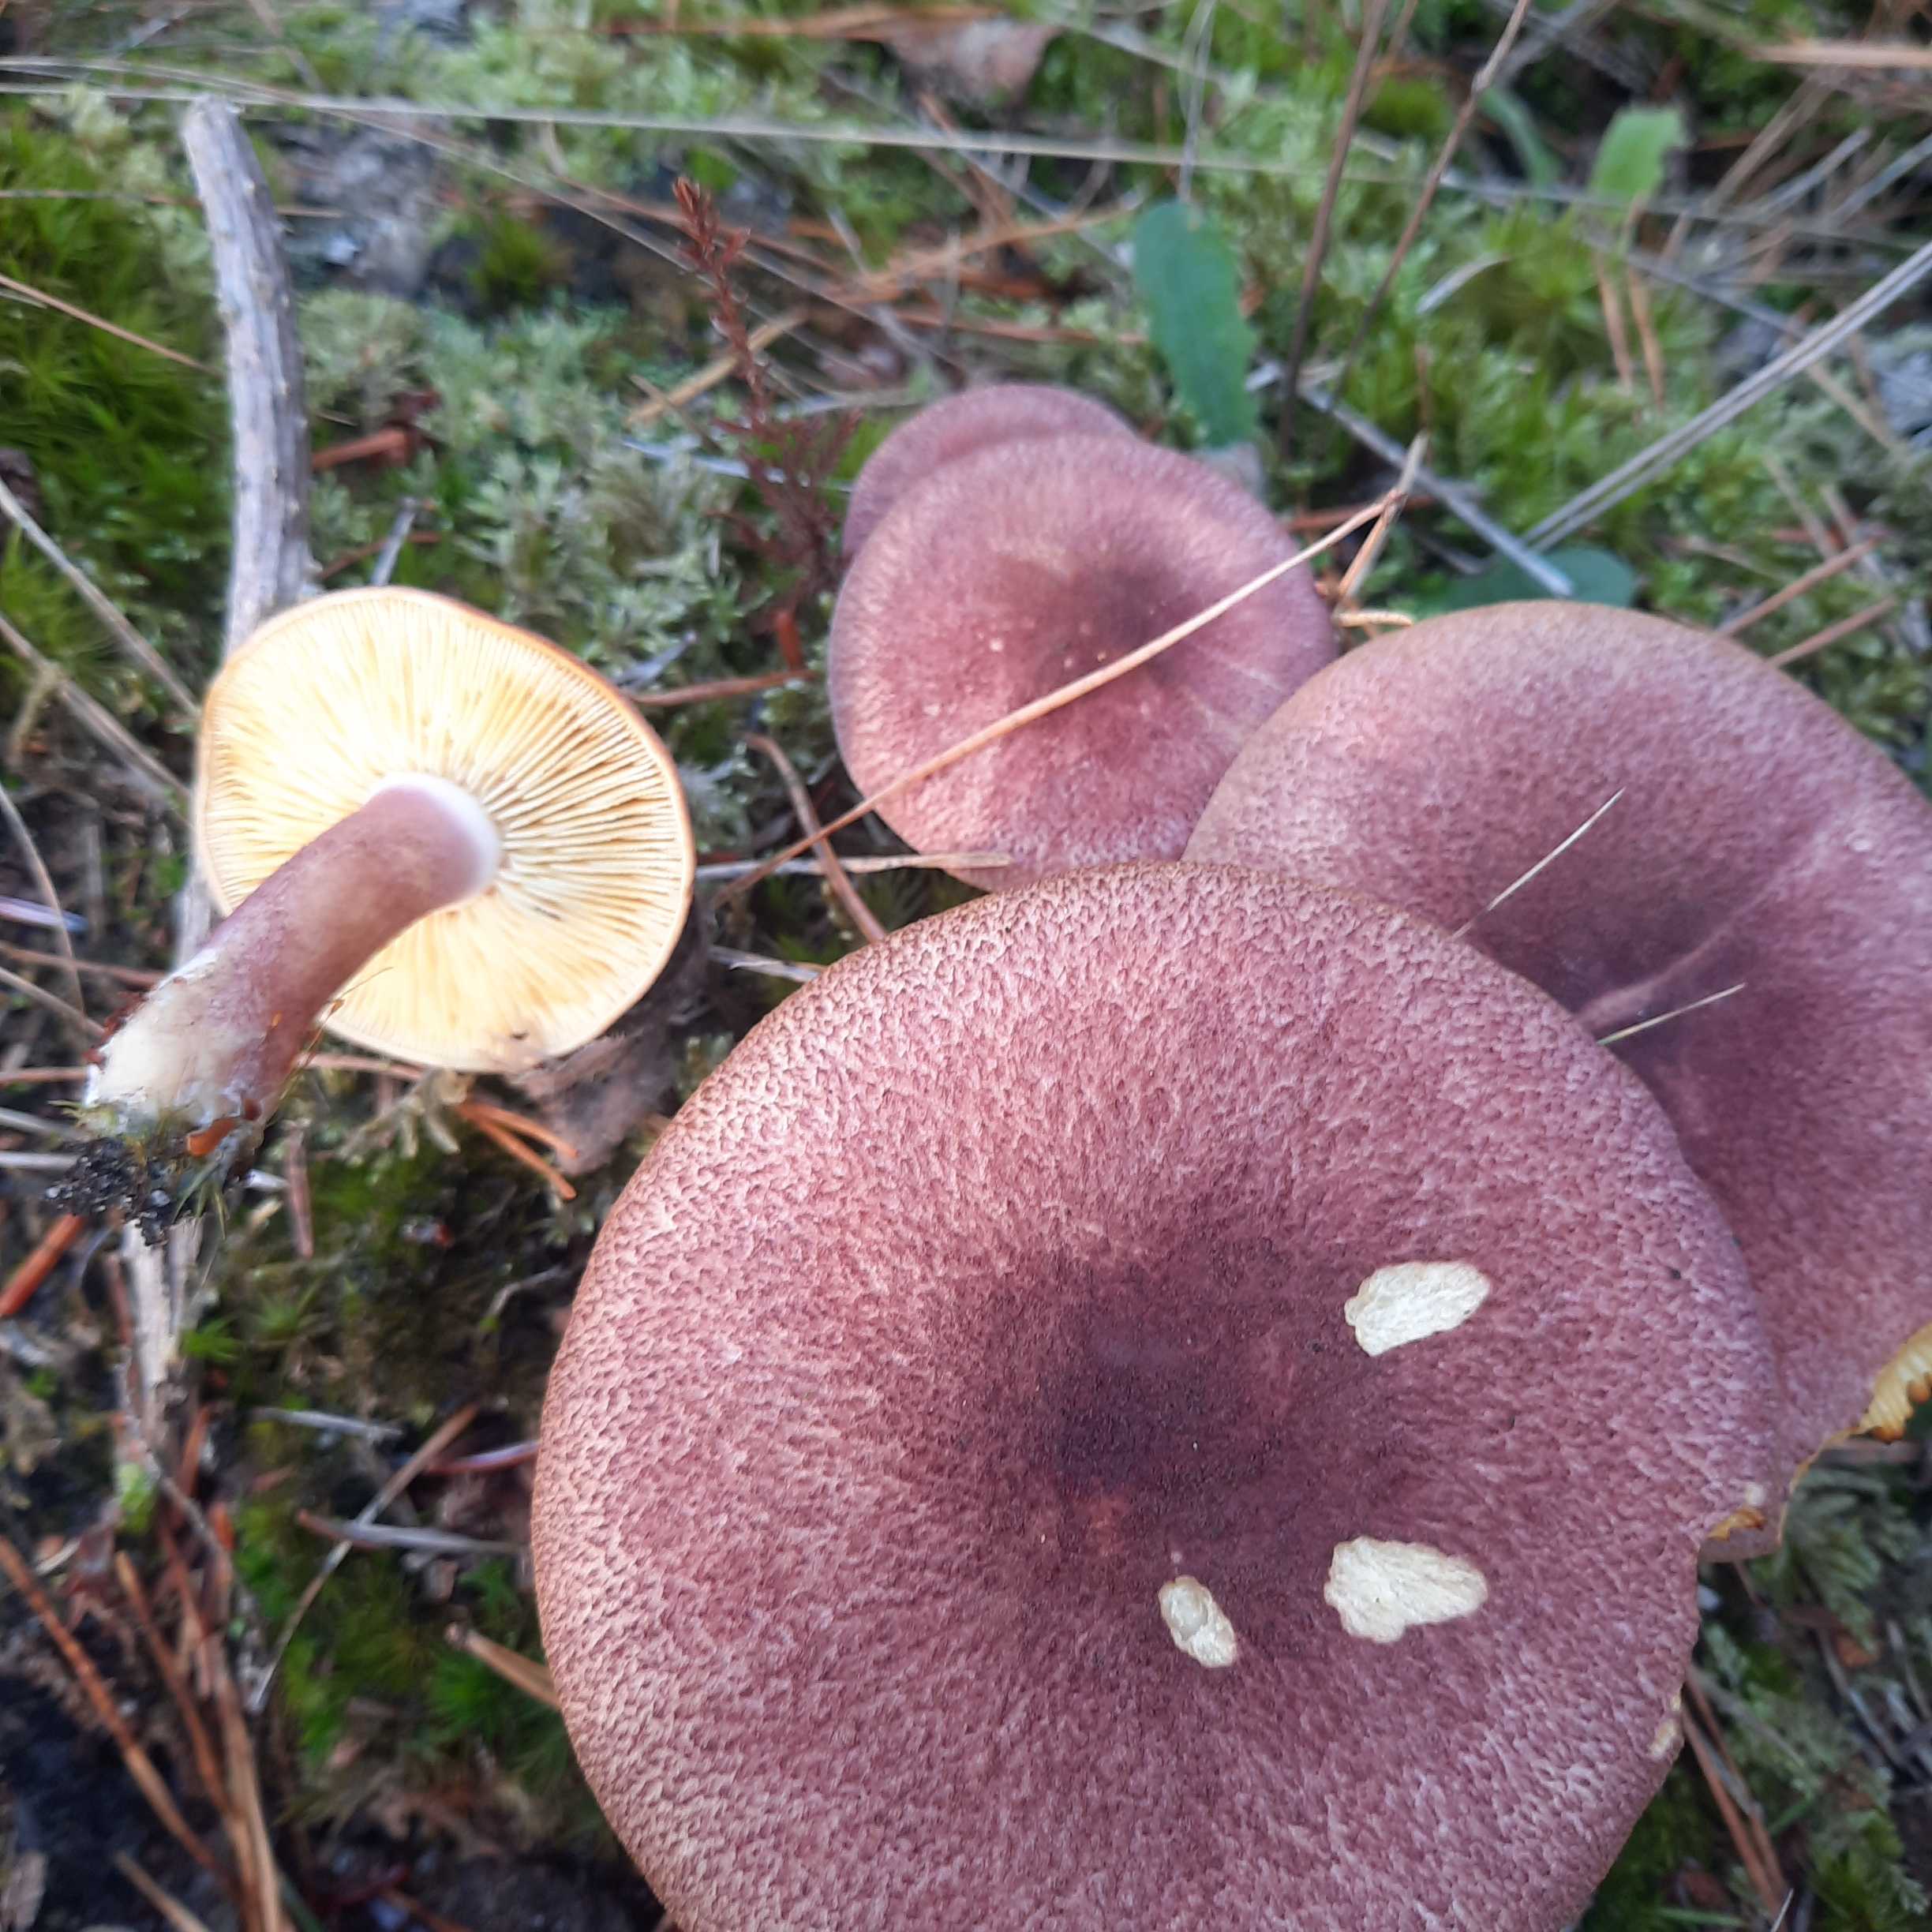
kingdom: Fungi
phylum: Basidiomycota
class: Agaricomycetes
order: Agaricales
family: Tricholomataceae
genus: Tricholomopsis
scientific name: Tricholomopsis rutilans
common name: purpur-væbnerhat
